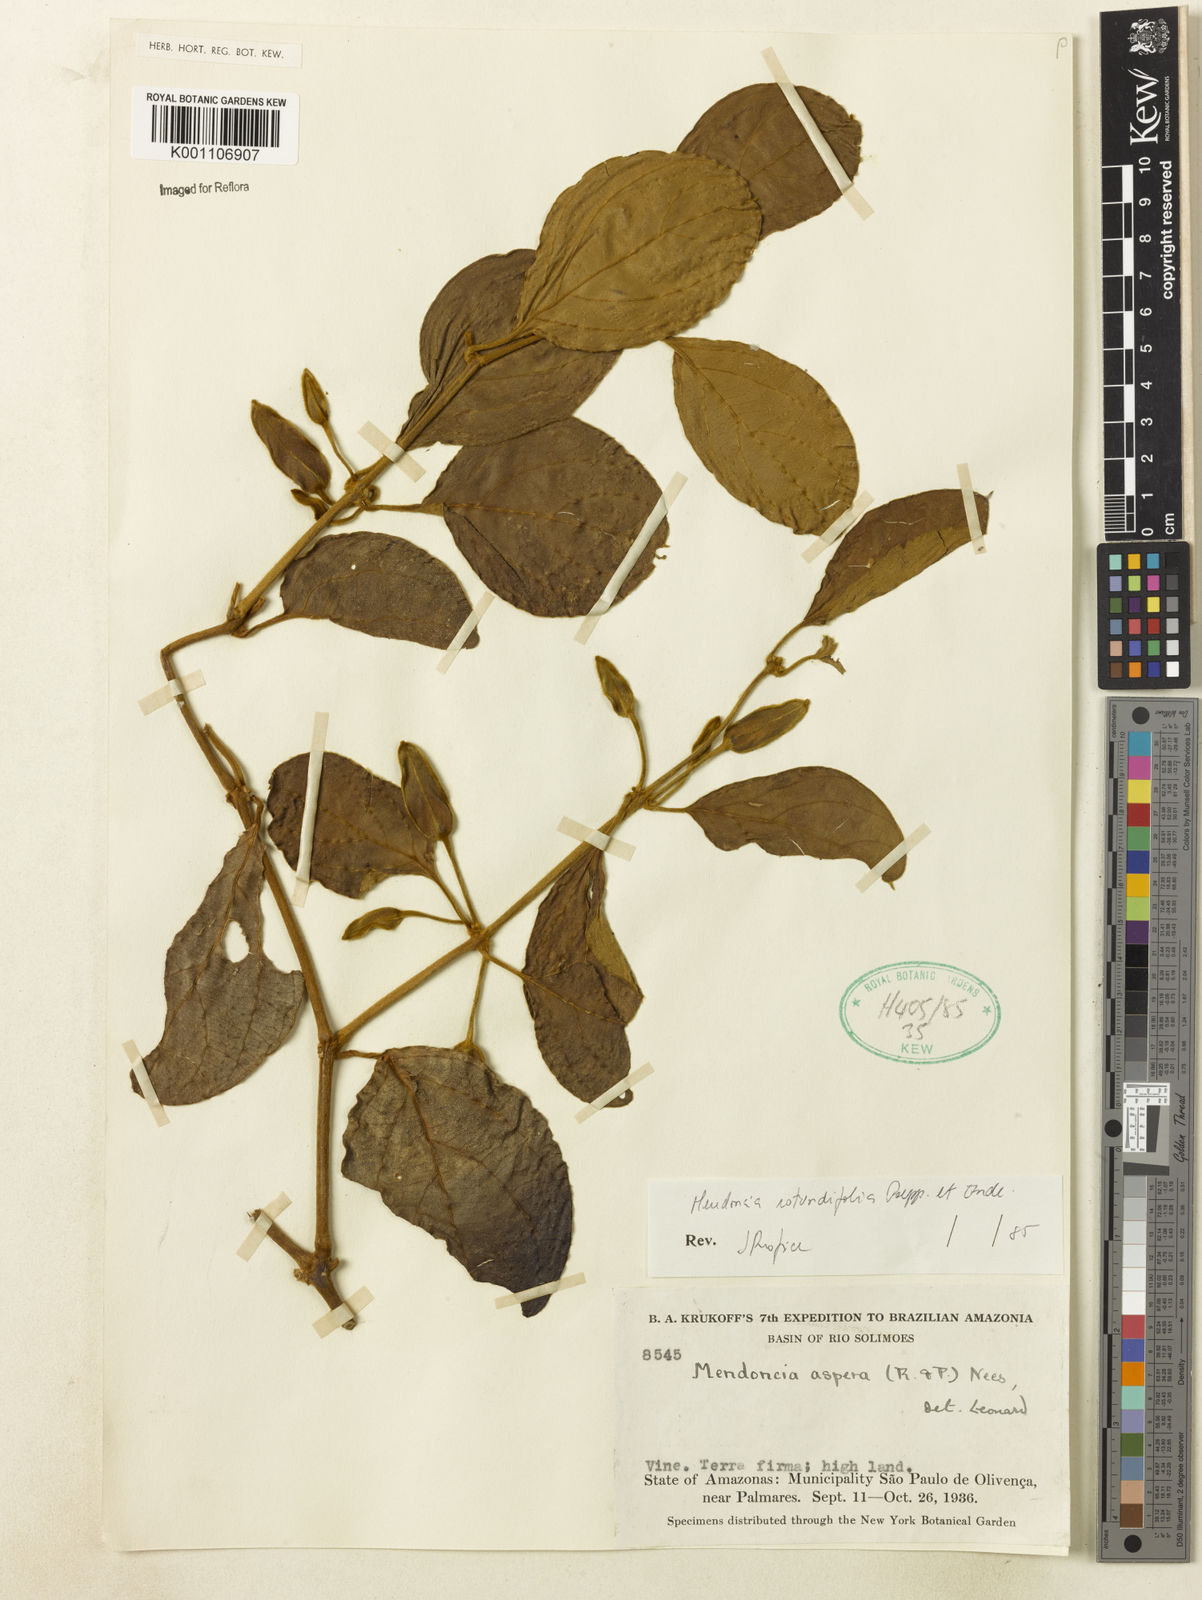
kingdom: Plantae
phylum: Tracheophyta
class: Magnoliopsida
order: Lamiales
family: Acanthaceae
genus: Mendoncia
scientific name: Mendoncia rotundifolia
